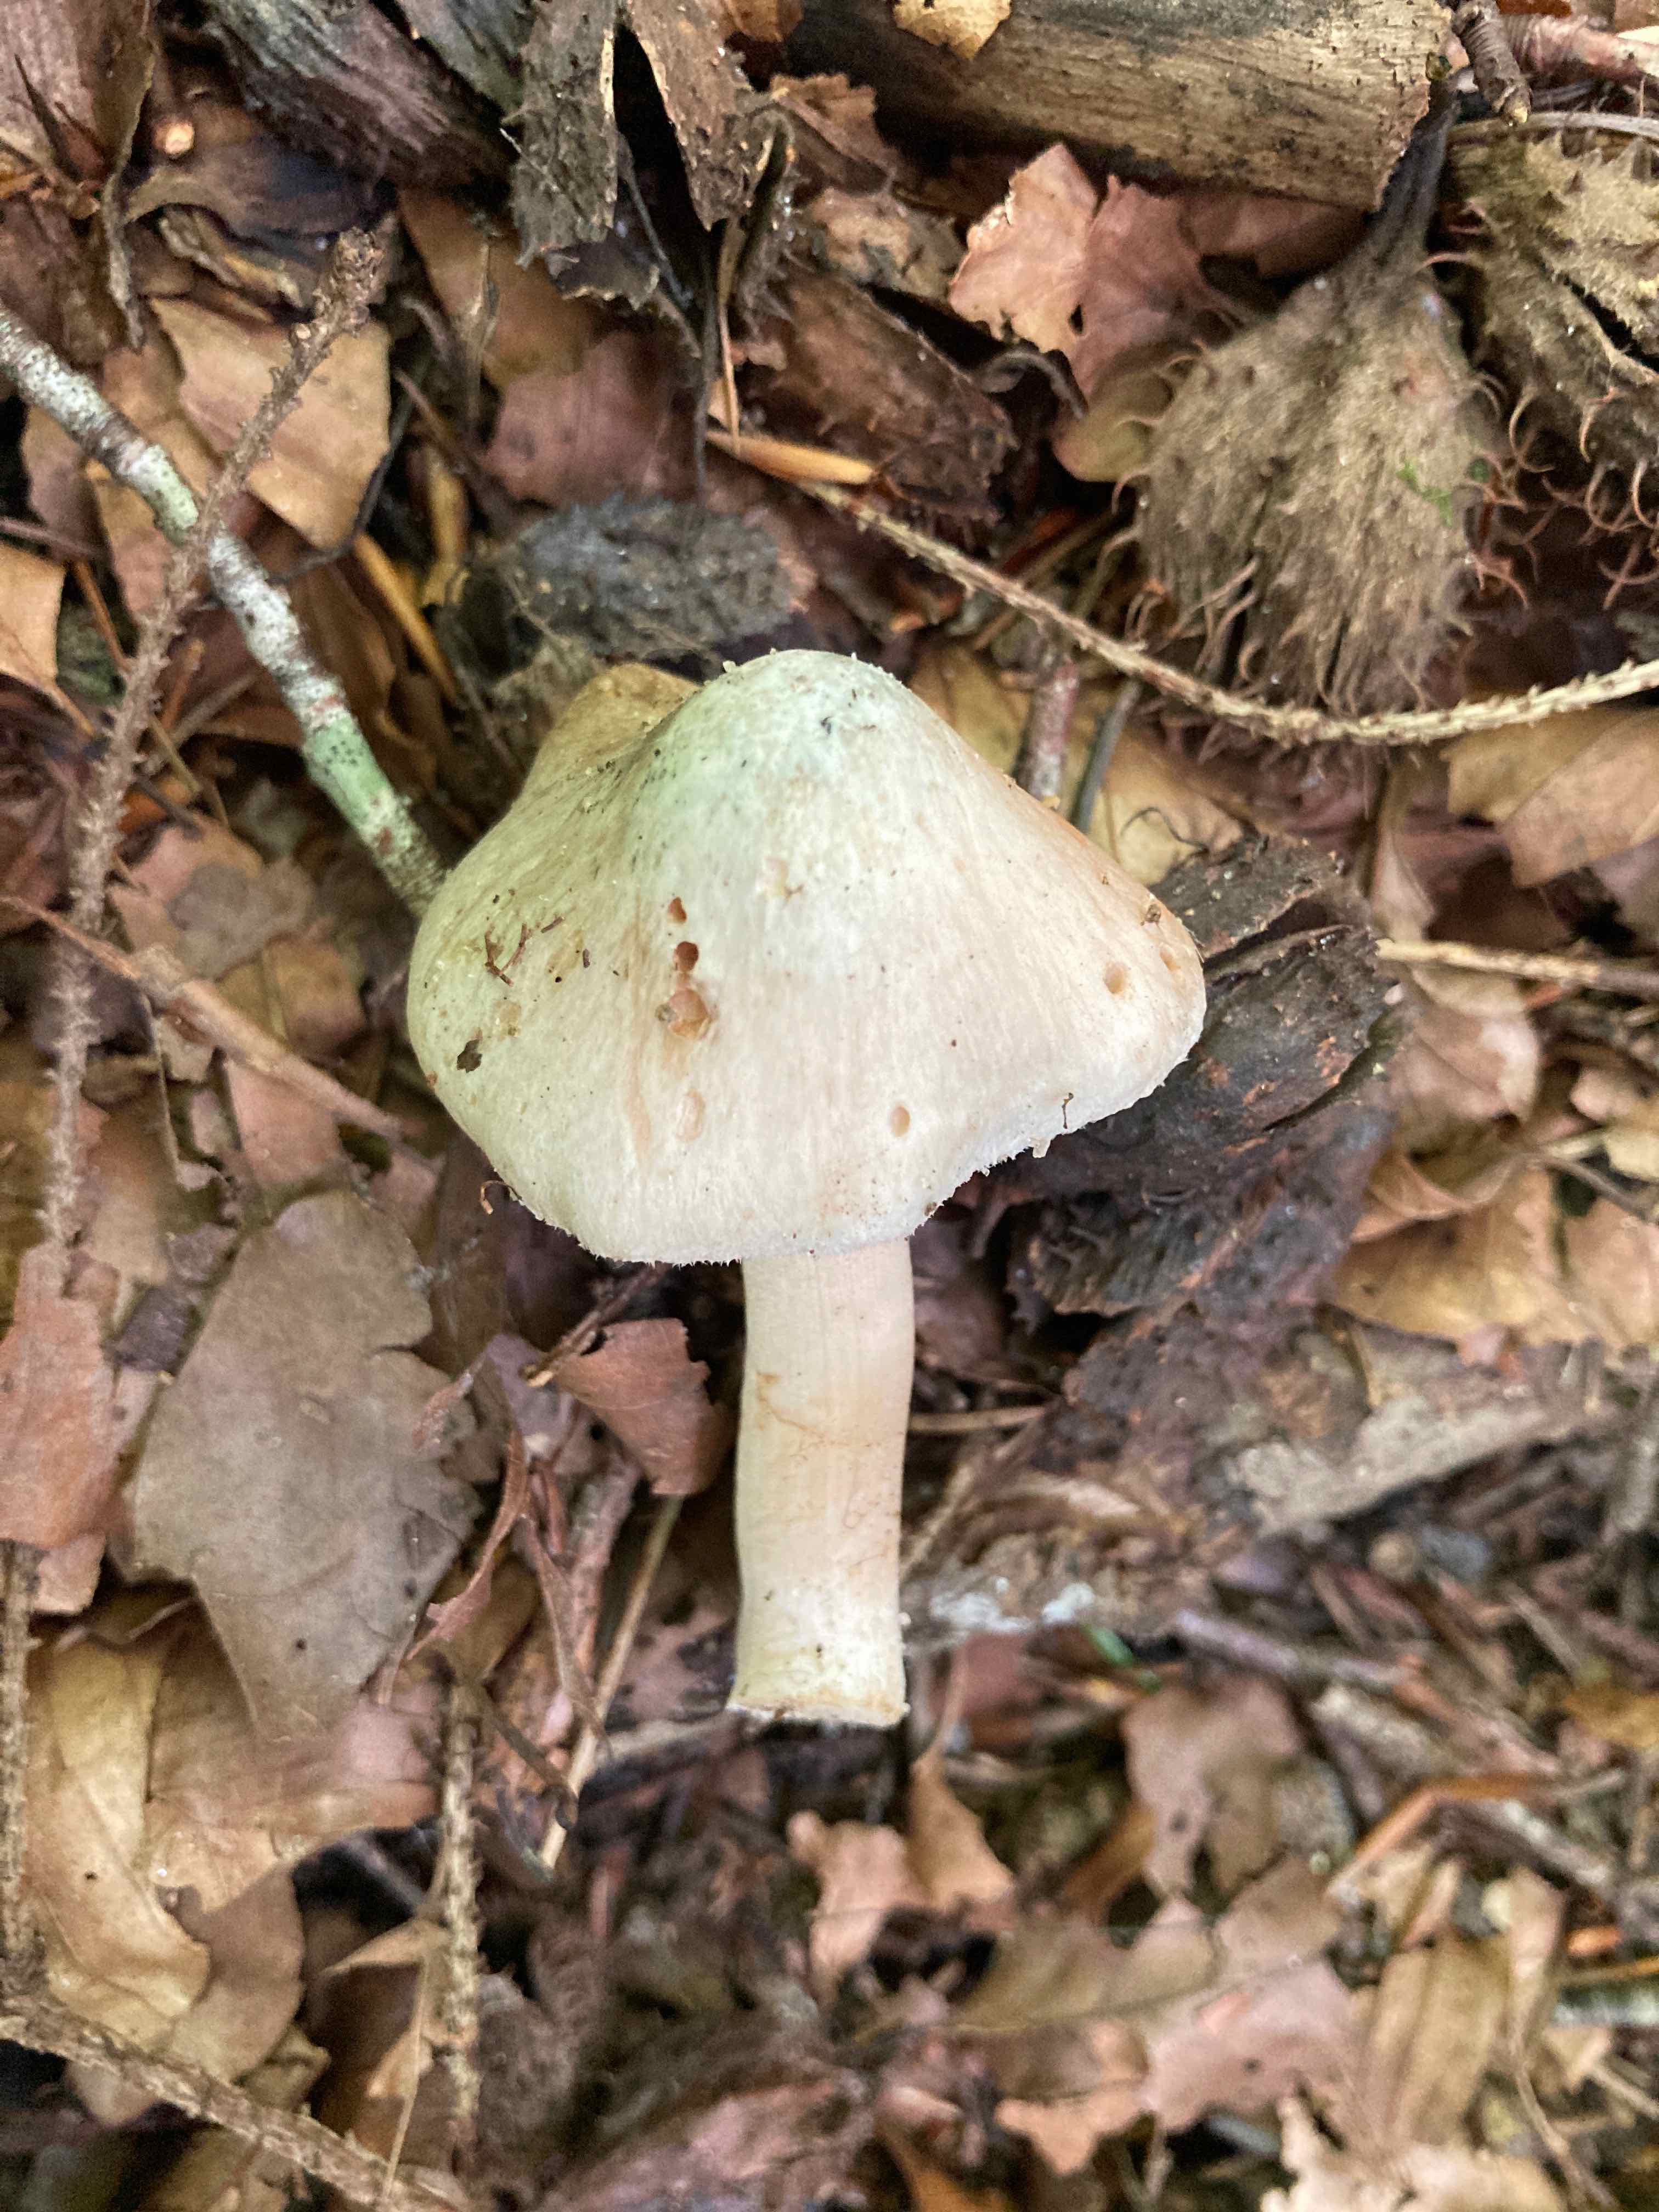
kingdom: Fungi
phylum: Basidiomycota
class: Agaricomycetes
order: Agaricales
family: Inocybaceae
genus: Inocybe
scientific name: Inocybe corydalina
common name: grønpuklet trævlhat
